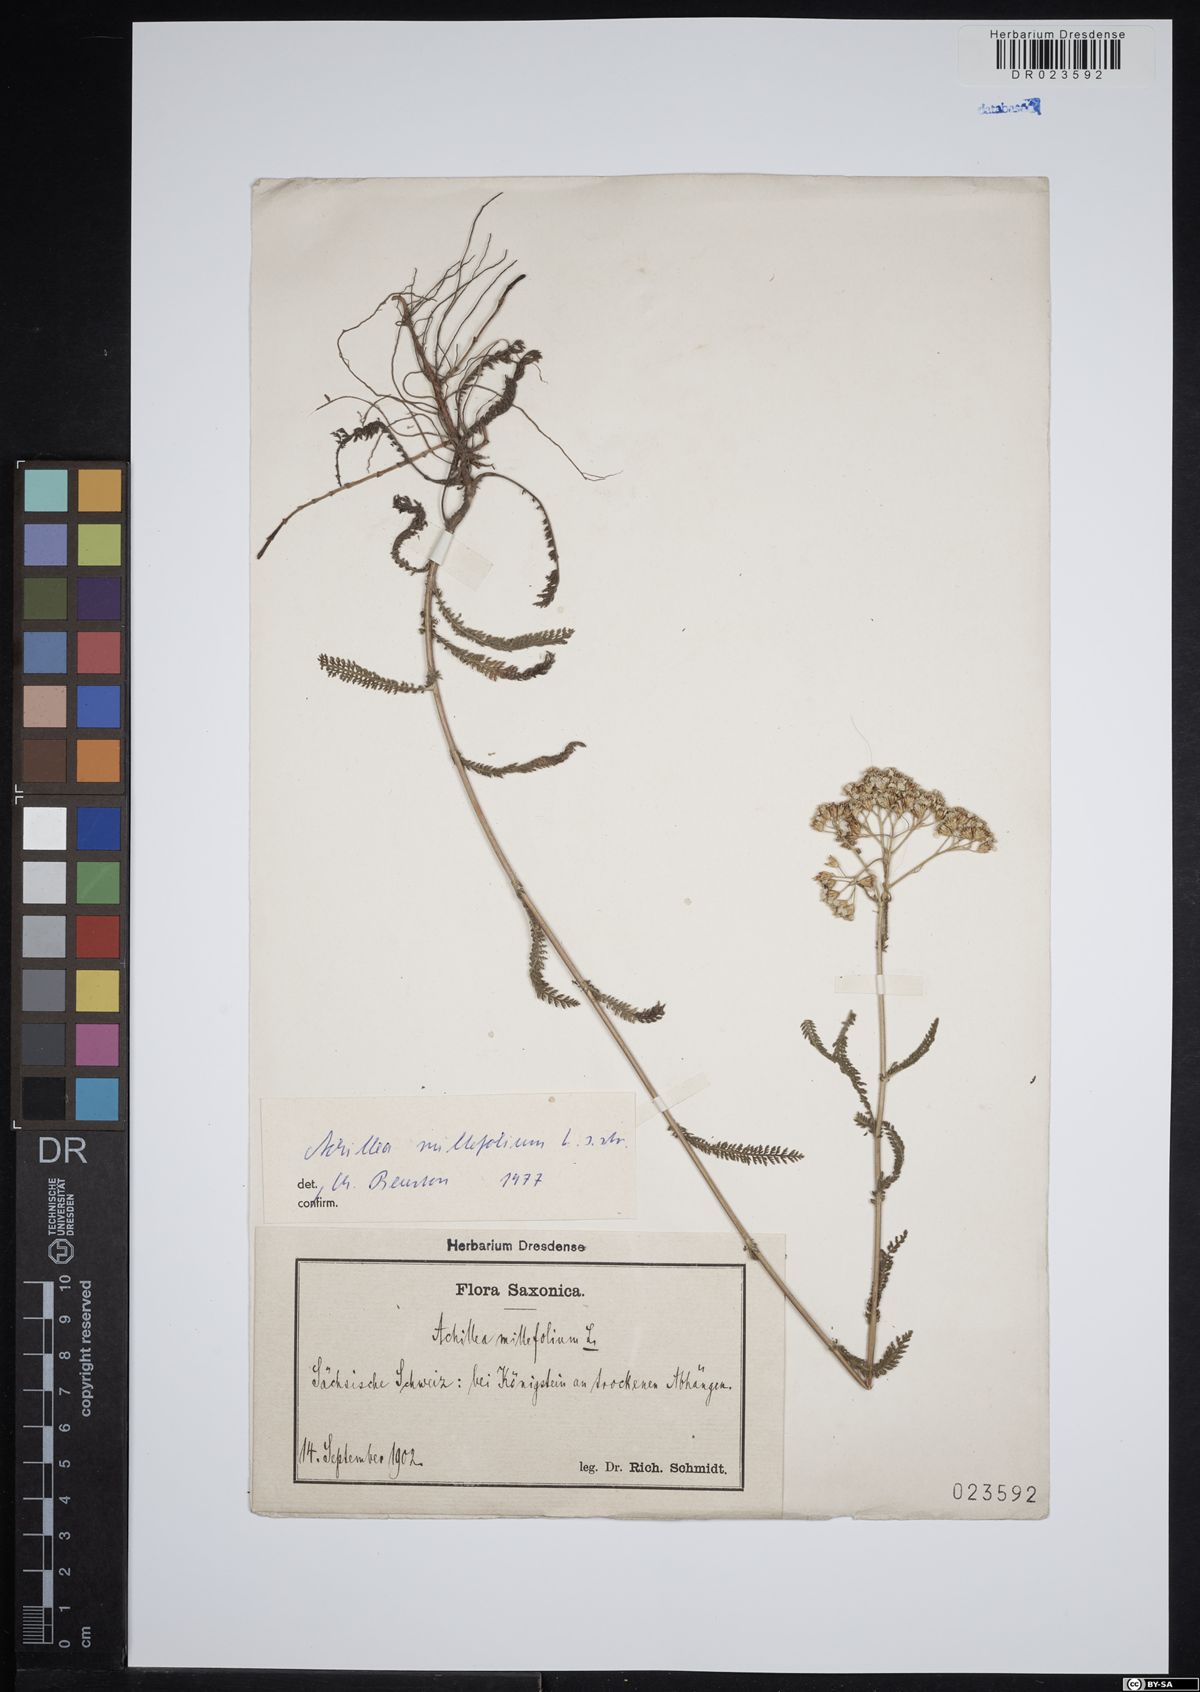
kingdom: Plantae
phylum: Tracheophyta
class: Magnoliopsida
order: Asterales
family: Asteraceae
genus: Achillea
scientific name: Achillea millefolium
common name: Yarrow
